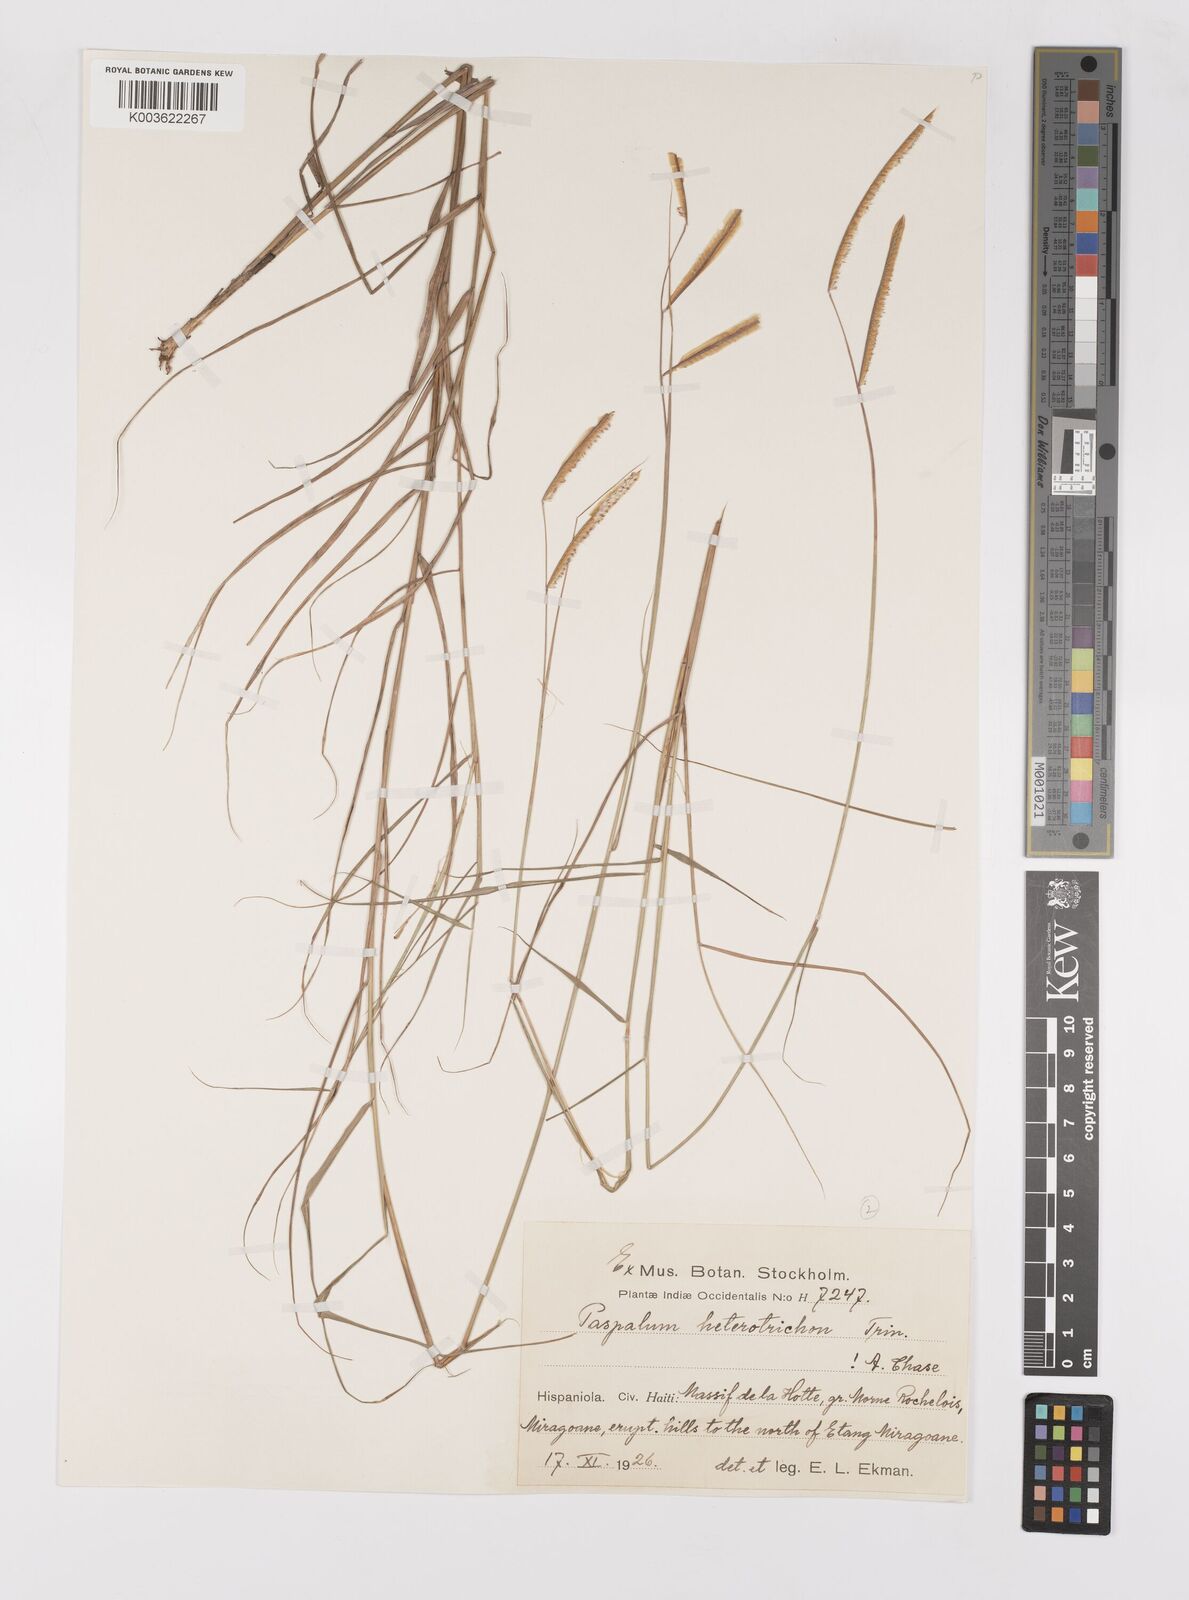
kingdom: Plantae
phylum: Tracheophyta
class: Liliopsida
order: Poales
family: Poaceae
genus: Paspalum
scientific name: Paspalum heterotrichon
